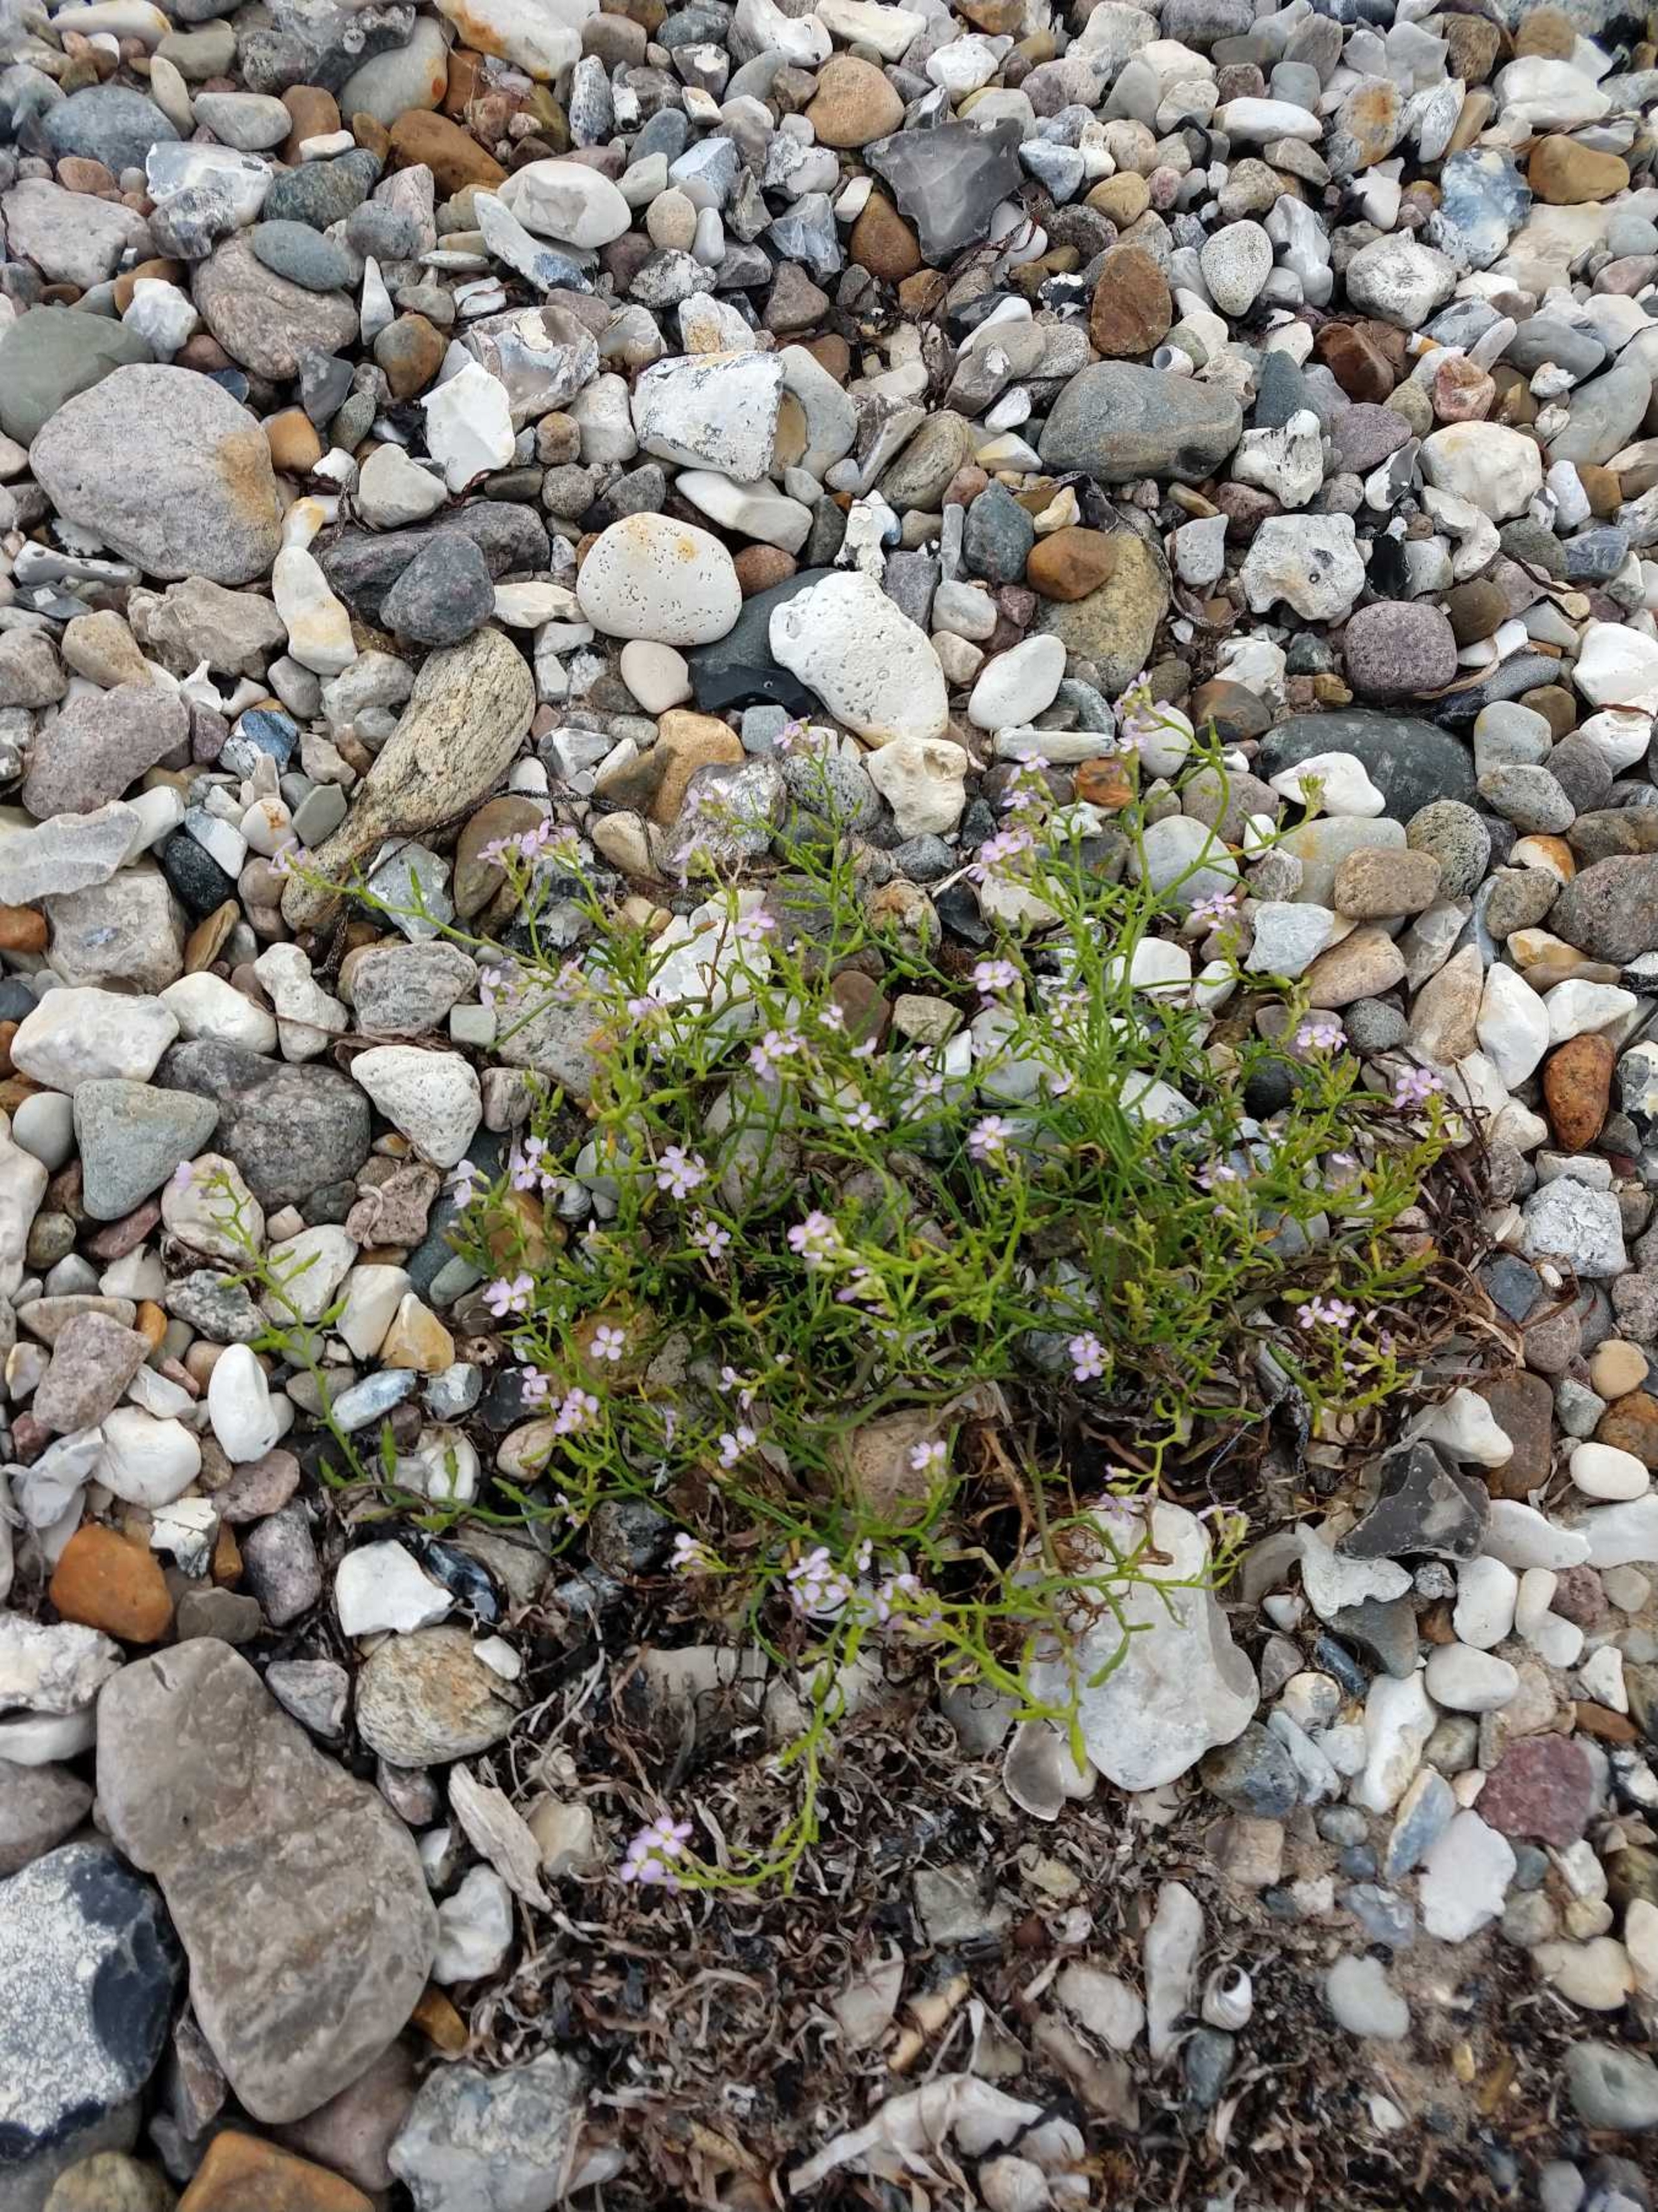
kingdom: Plantae
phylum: Tracheophyta
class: Magnoliopsida
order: Brassicales
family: Brassicaceae
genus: Cakile
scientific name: Cakile maritima
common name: Strandsennep
